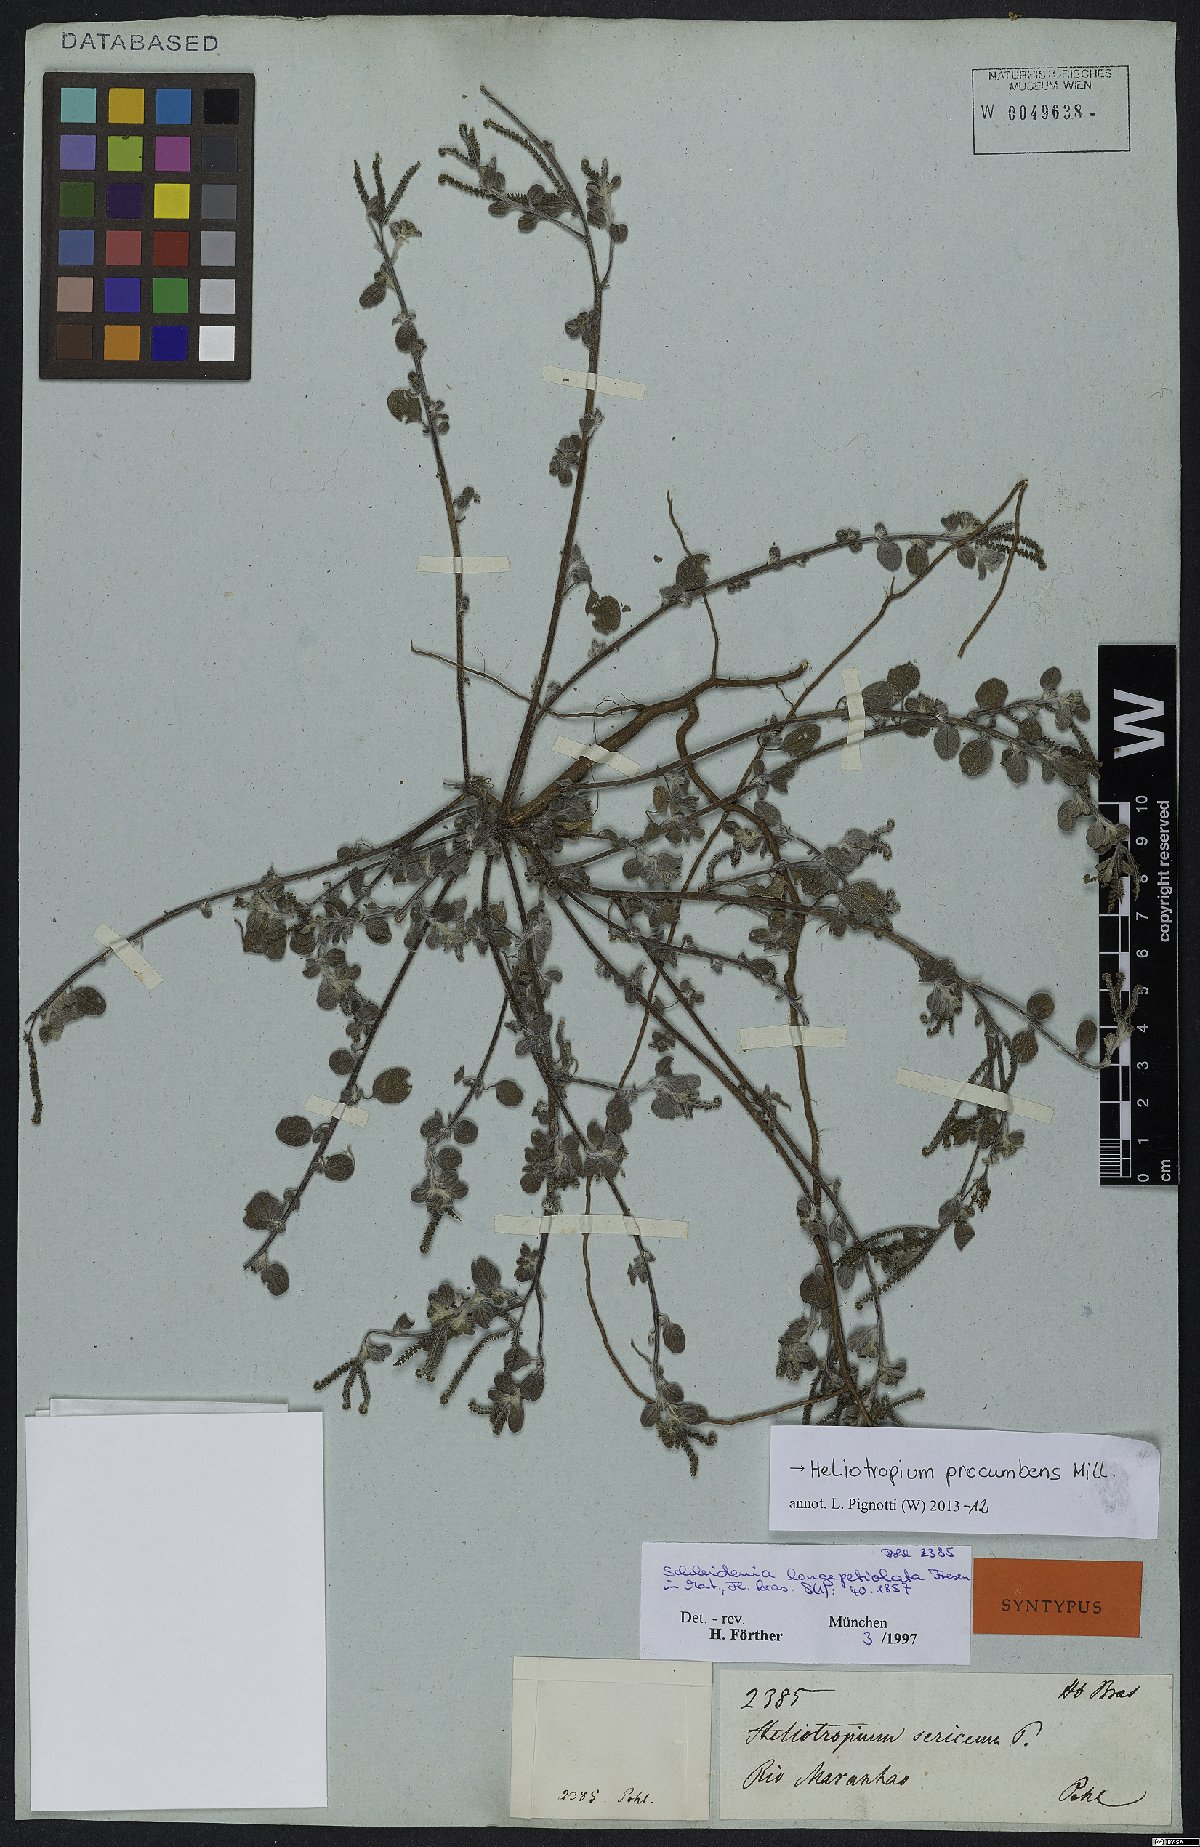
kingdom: Plantae
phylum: Tracheophyta
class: Magnoliopsida
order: Boraginales
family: Heliotropiaceae
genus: Euploca
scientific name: Euploca procumbens
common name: Fourspike heliotrope
